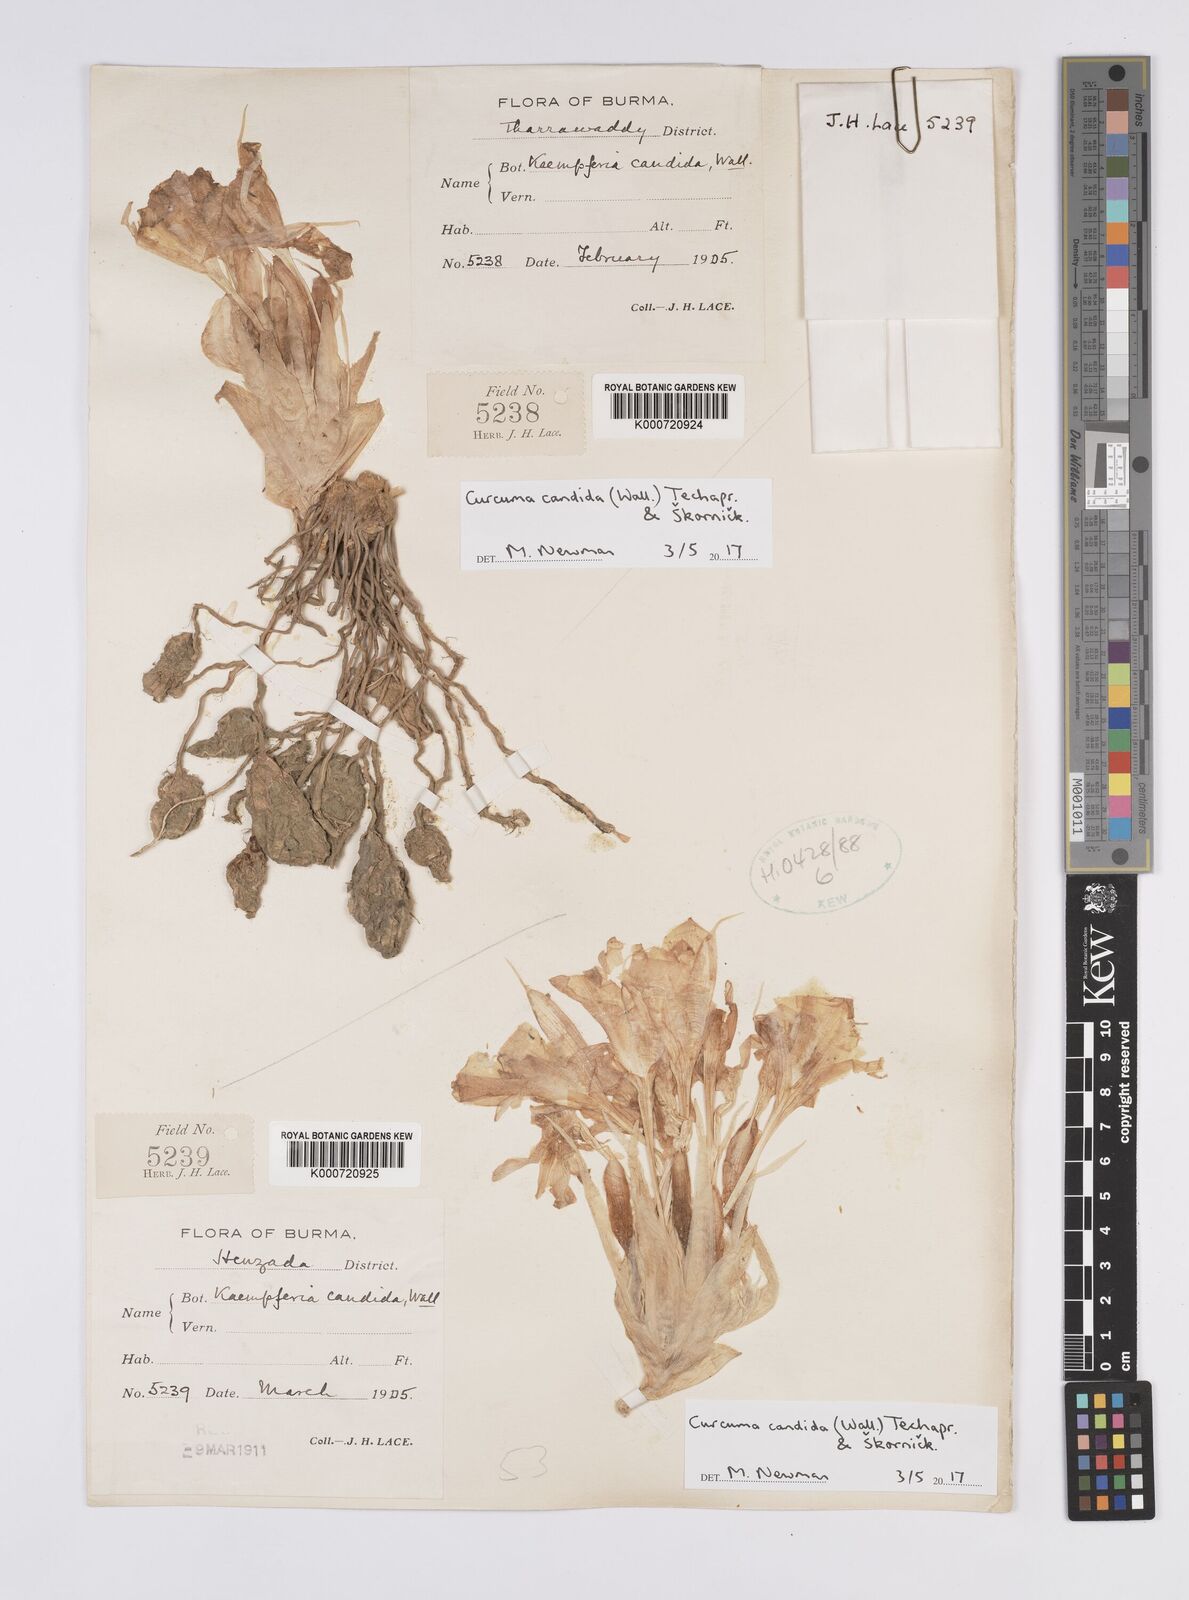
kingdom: Plantae
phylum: Tracheophyta
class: Liliopsida
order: Zingiberales
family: Zingiberaceae
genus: Curcuma
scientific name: Curcuma
